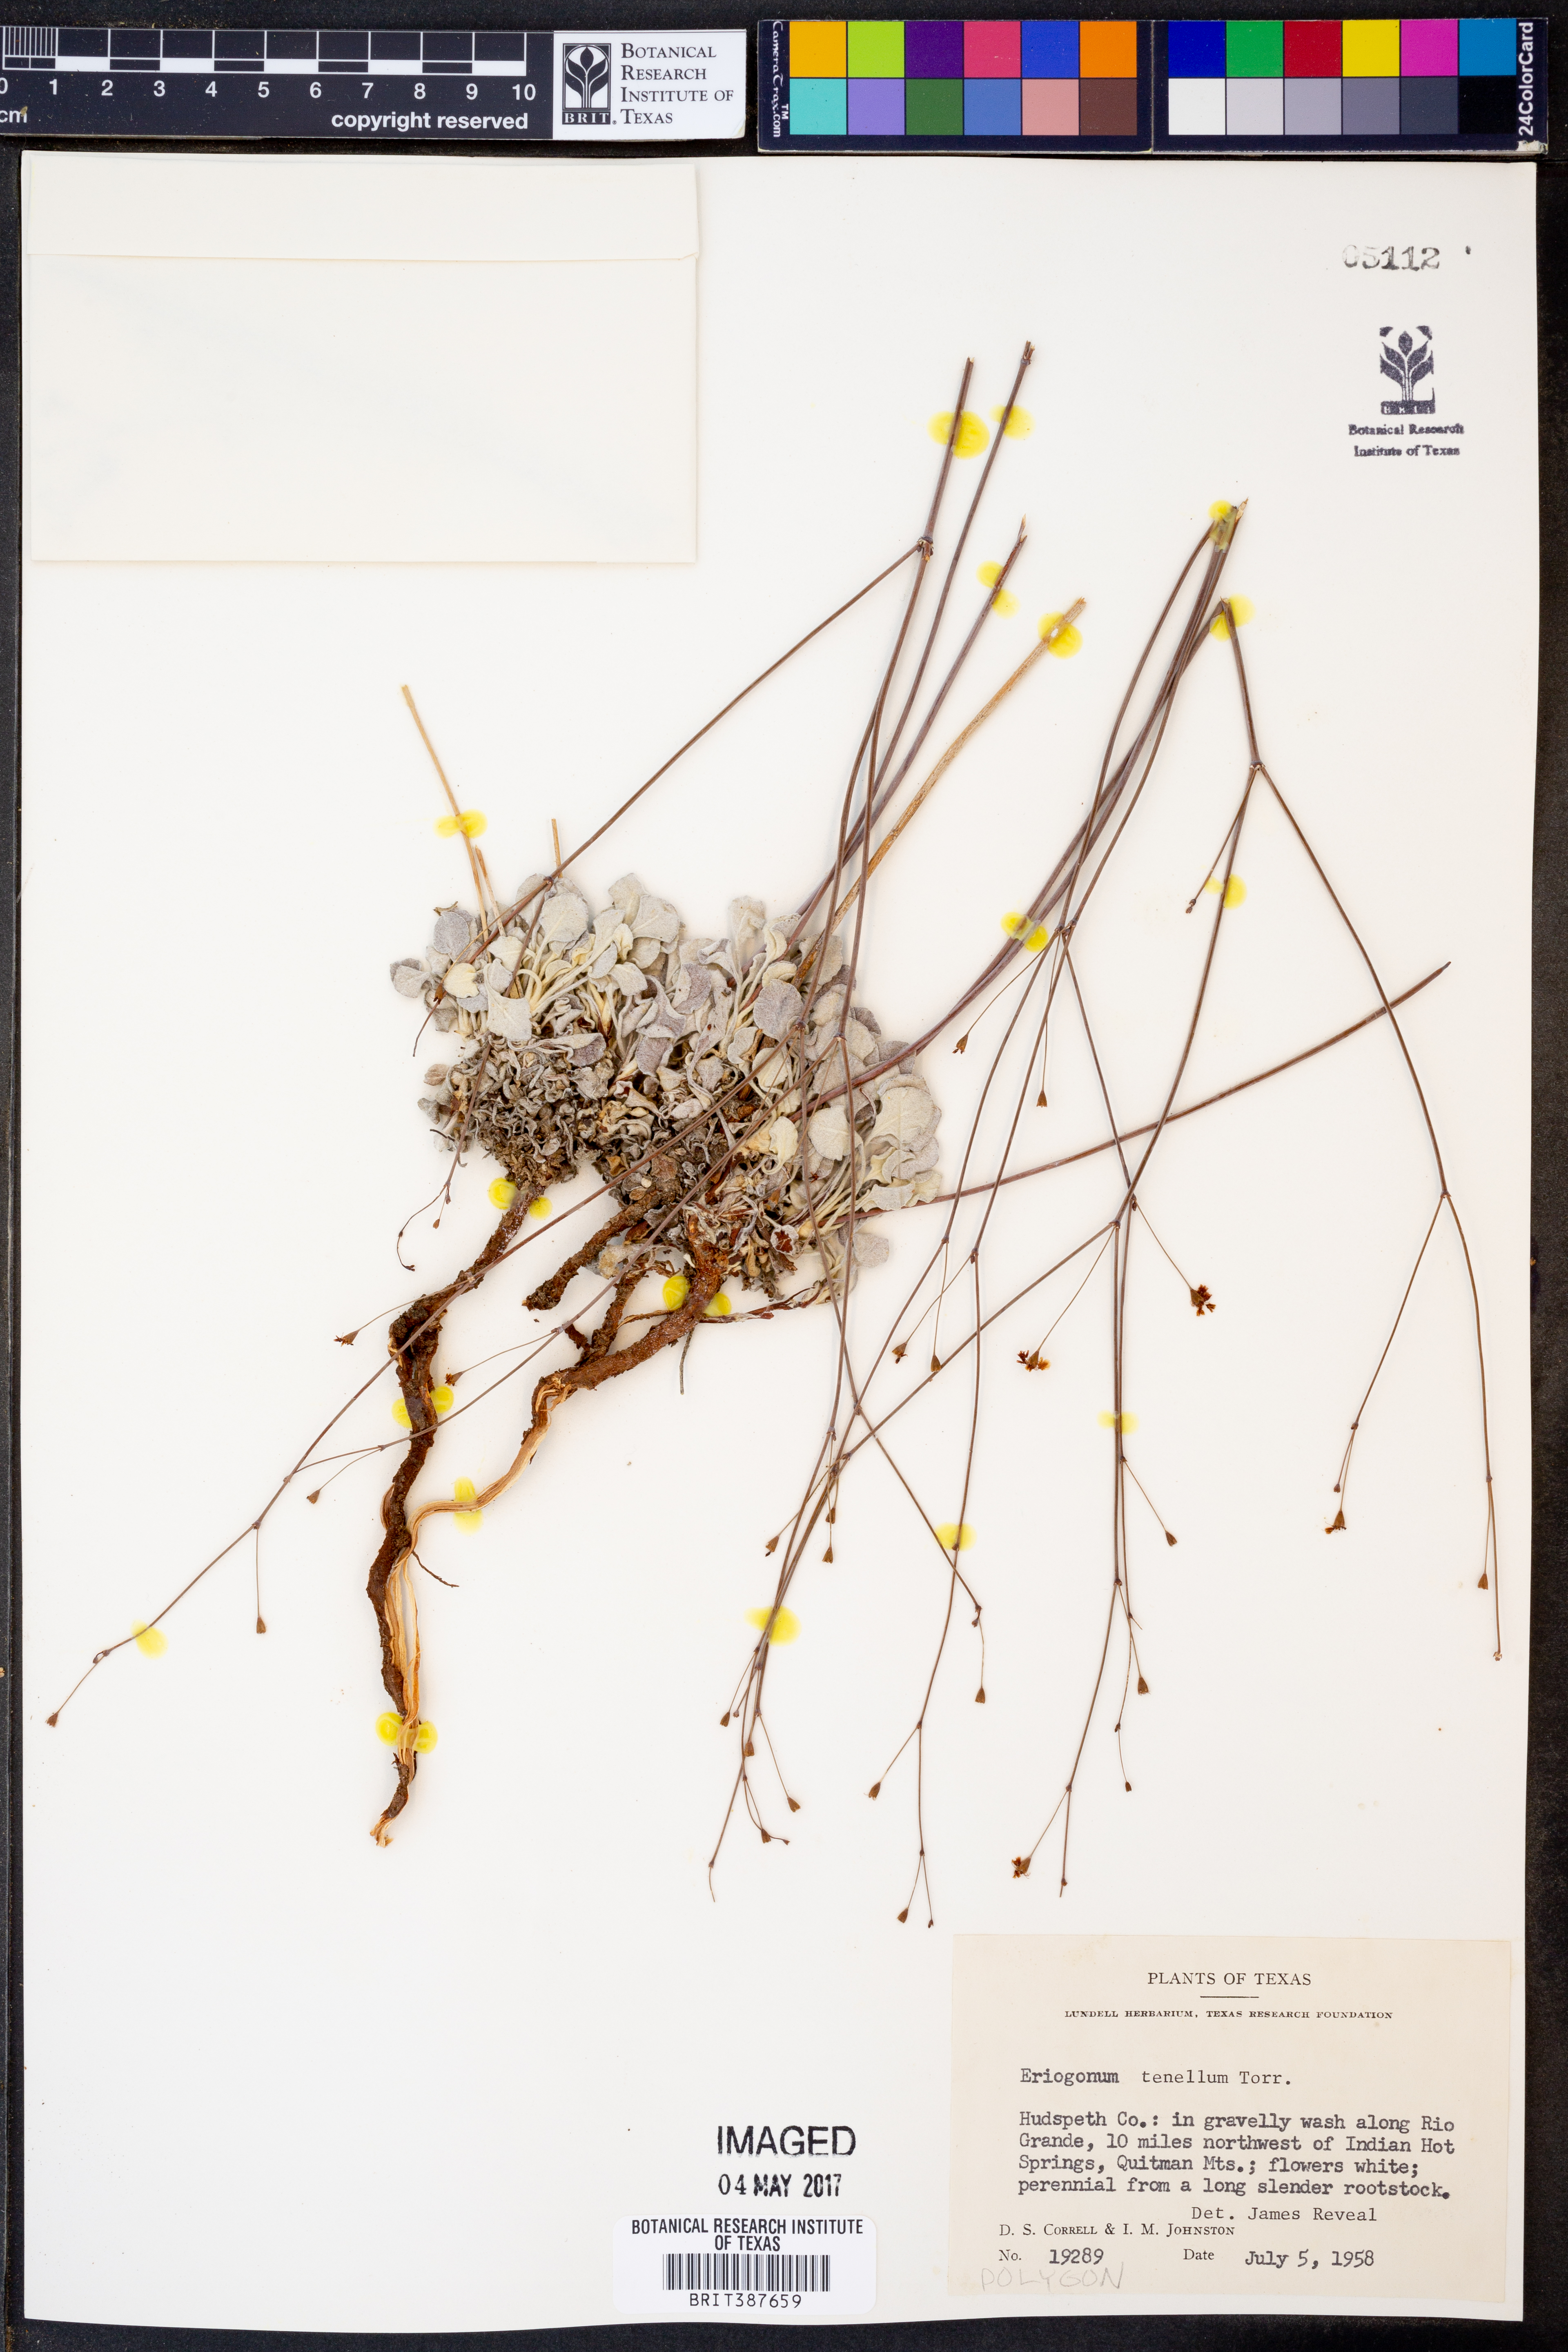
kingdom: Plantae
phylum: Tracheophyta
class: Magnoliopsida
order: Caryophyllales
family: Polygonaceae
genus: Eriogonum
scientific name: Eriogonum tenellum
